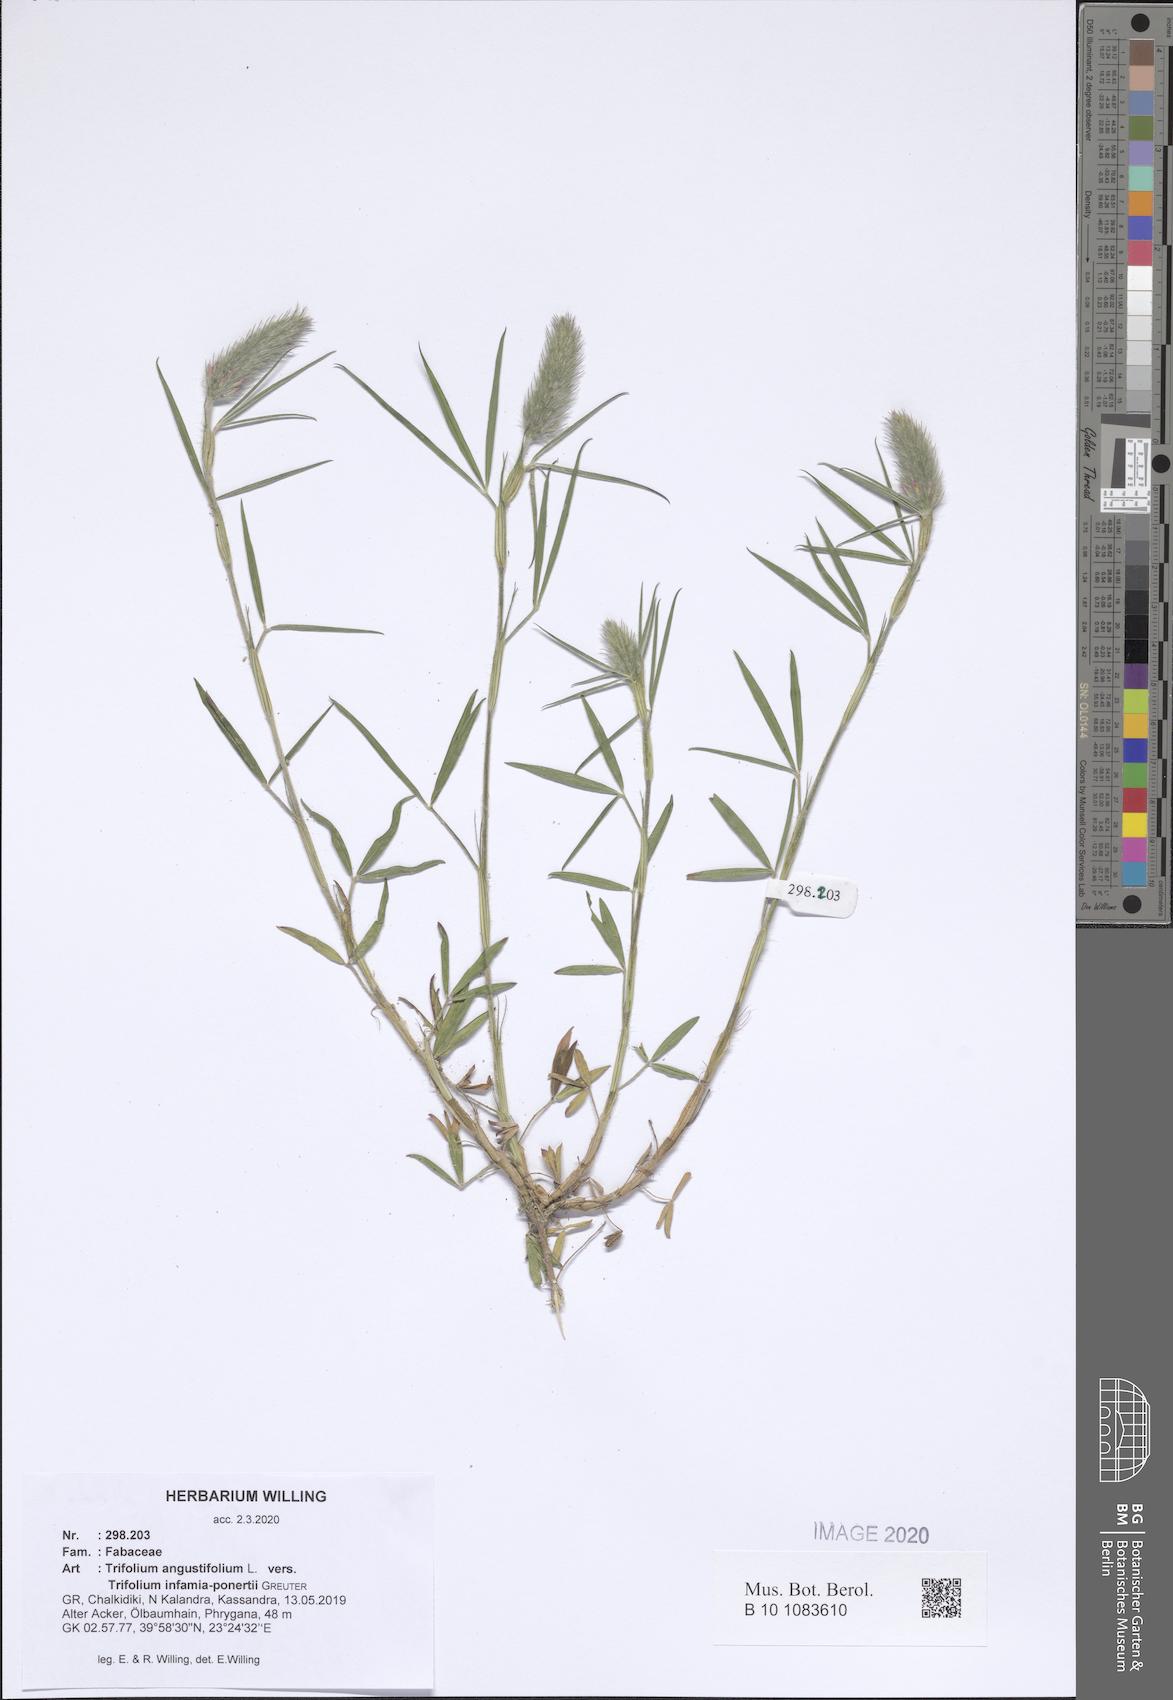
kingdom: Plantae
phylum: Tracheophyta
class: Magnoliopsida
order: Fabales
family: Fabaceae
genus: Trifolium
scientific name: Trifolium angustifolium
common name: Narrow clover
